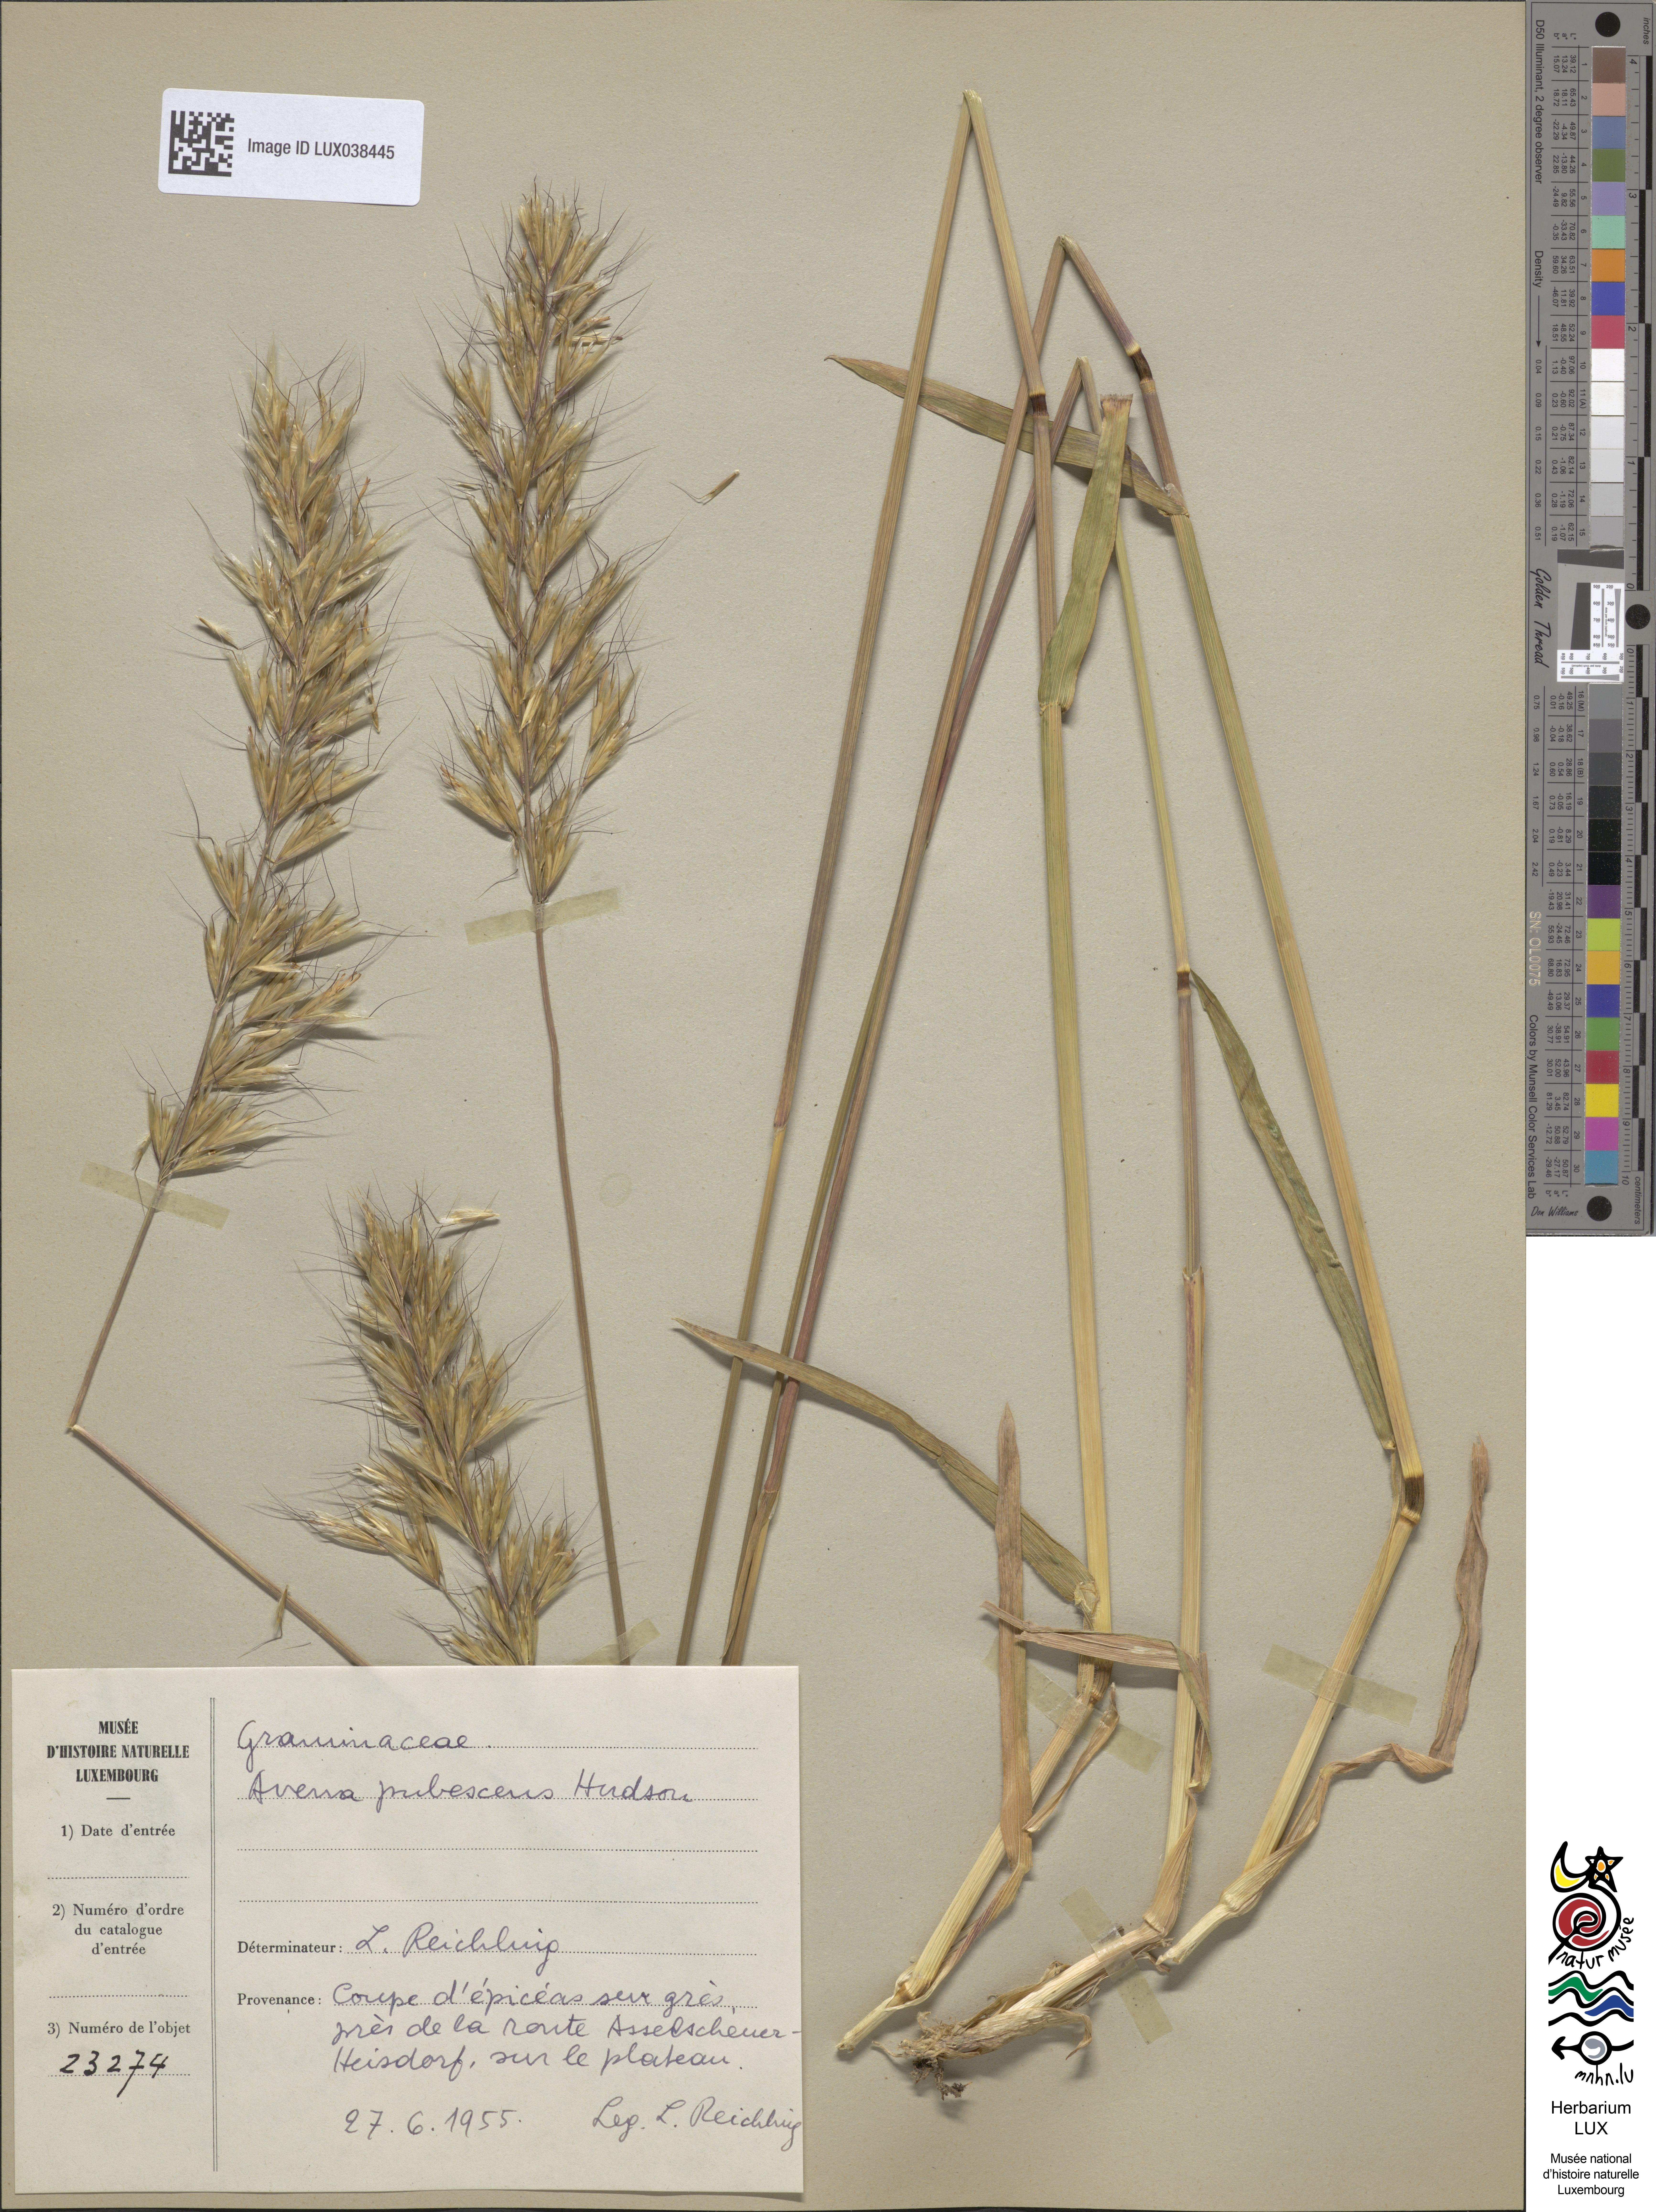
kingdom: Plantae
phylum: Tracheophyta
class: Liliopsida
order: Poales
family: Poaceae
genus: Avenula
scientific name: Avenula pubescens
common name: Downy alpine oatgrass
